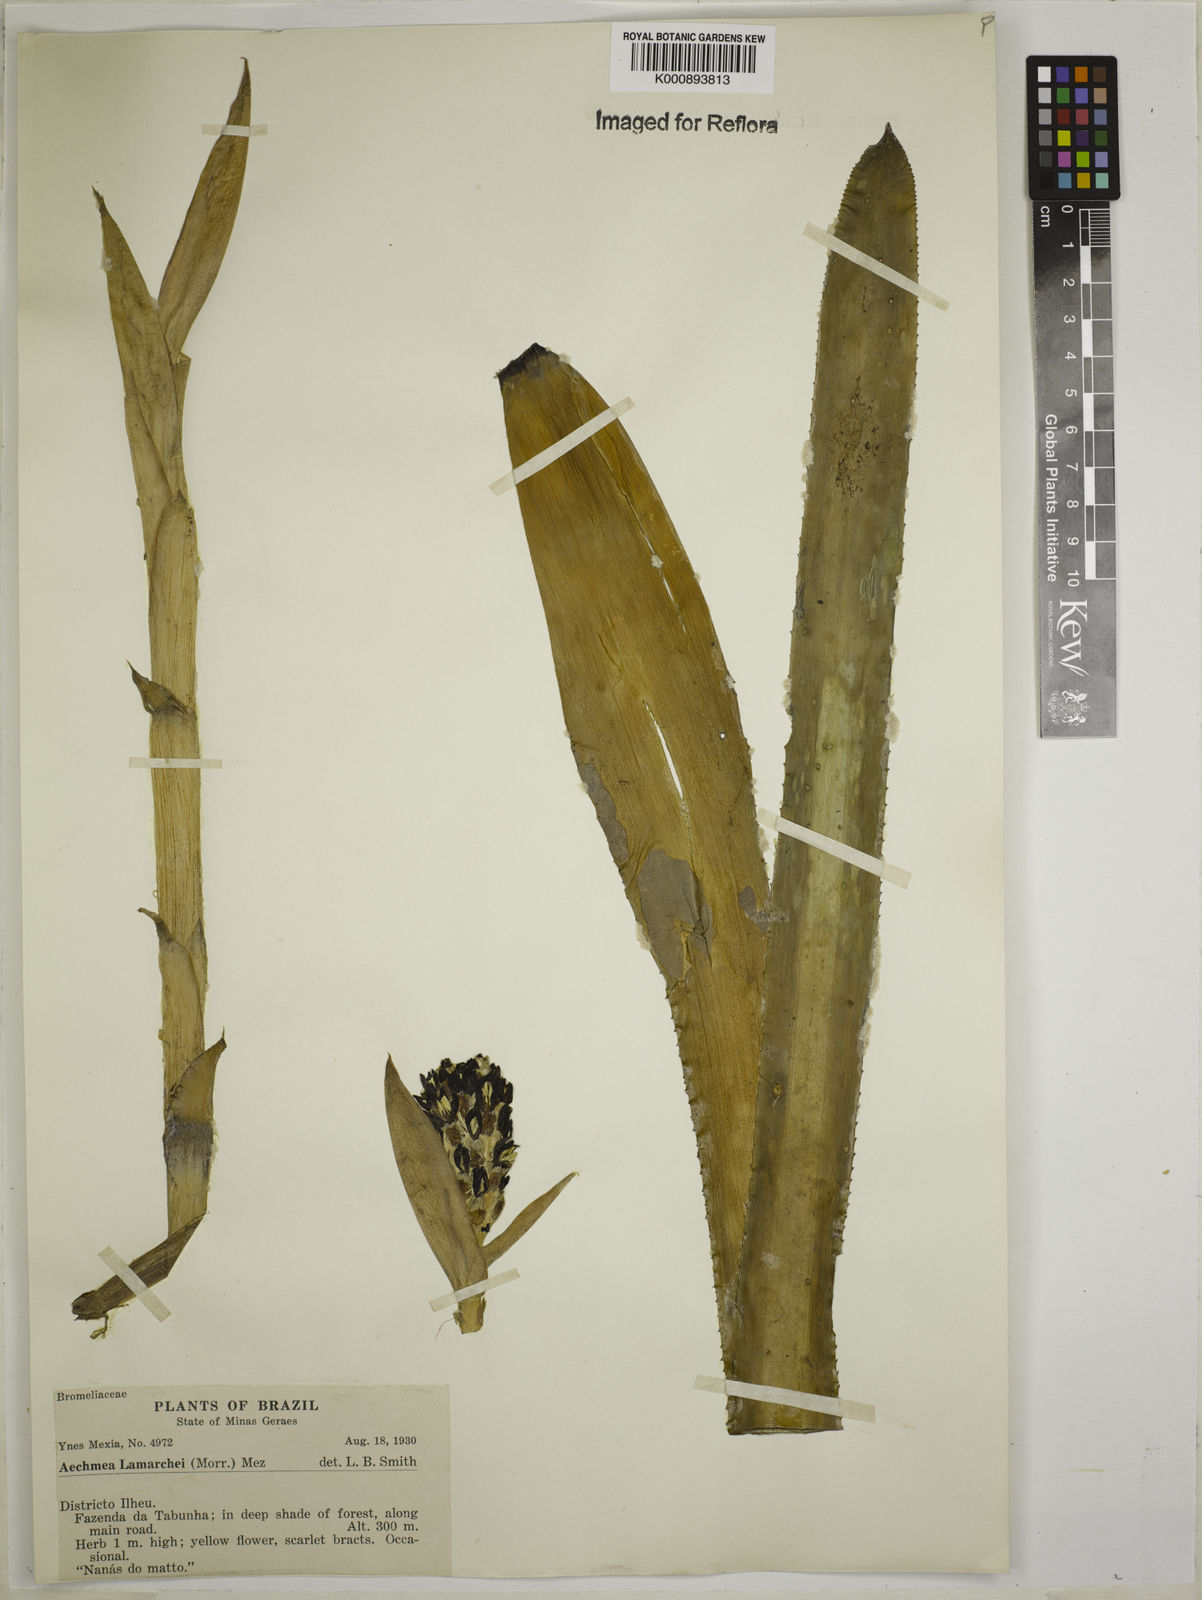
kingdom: Plantae
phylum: Tracheophyta
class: Liliopsida
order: Poales
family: Bromeliaceae
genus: Aechmea
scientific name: Aechmea lamarchei
